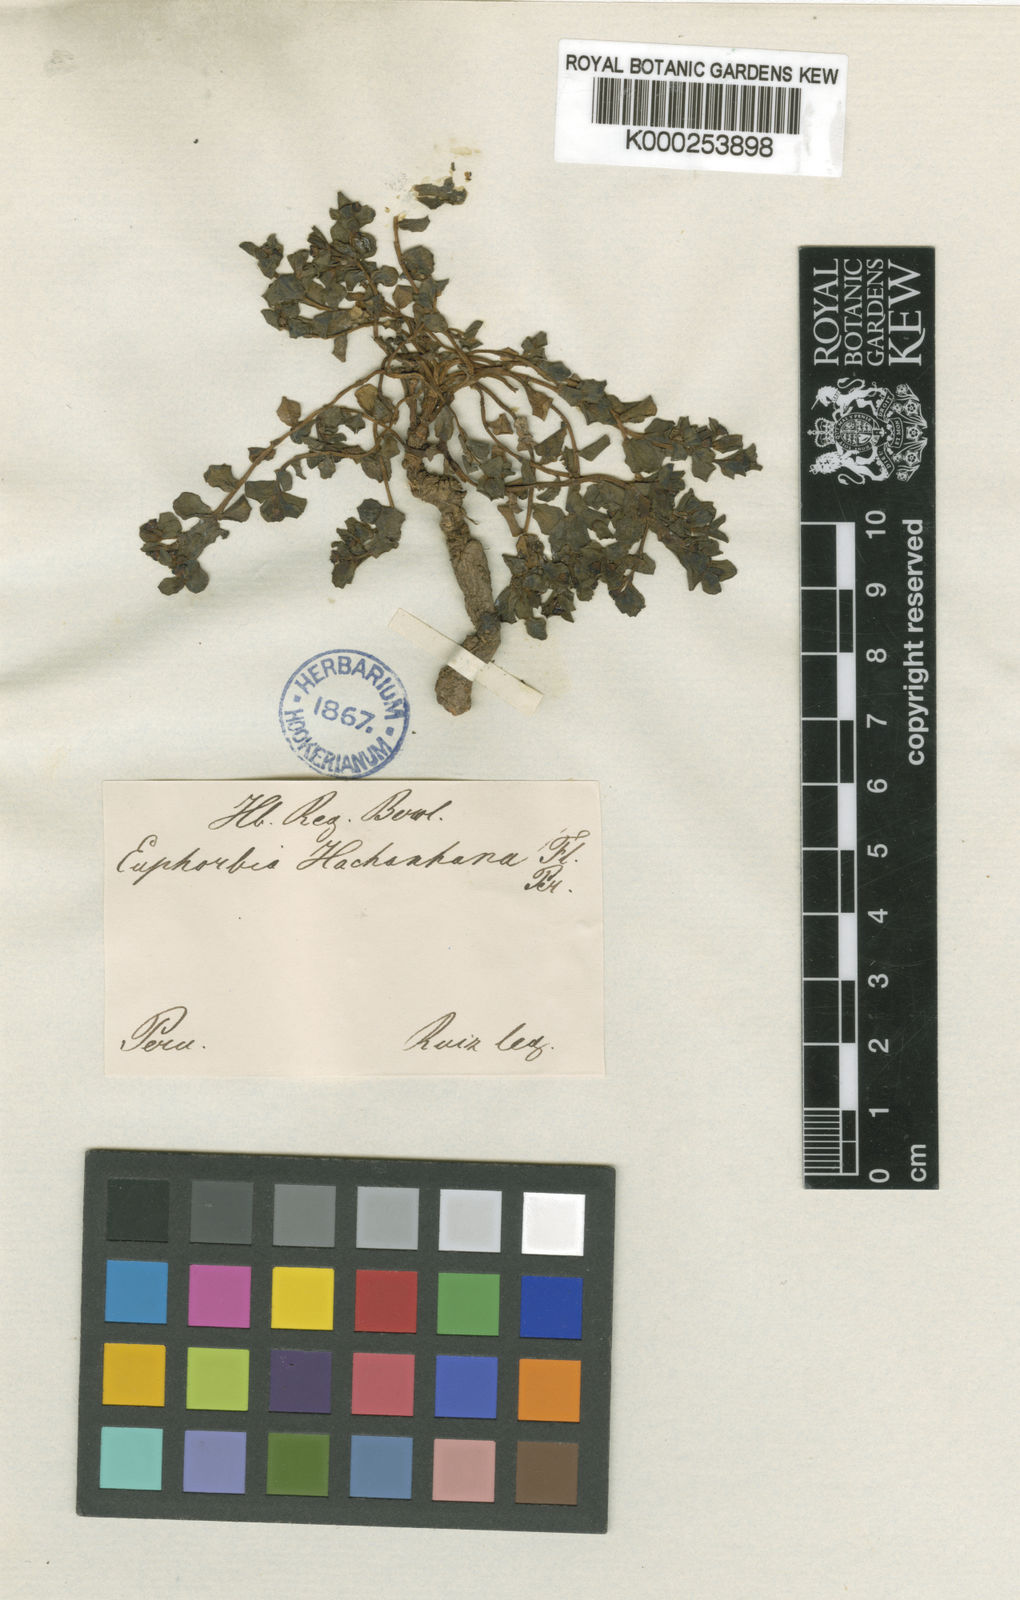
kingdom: Plantae
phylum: Tracheophyta
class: Magnoliopsida
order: Malpighiales
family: Euphorbiaceae
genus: Euphorbia
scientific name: Euphorbia guachanca
